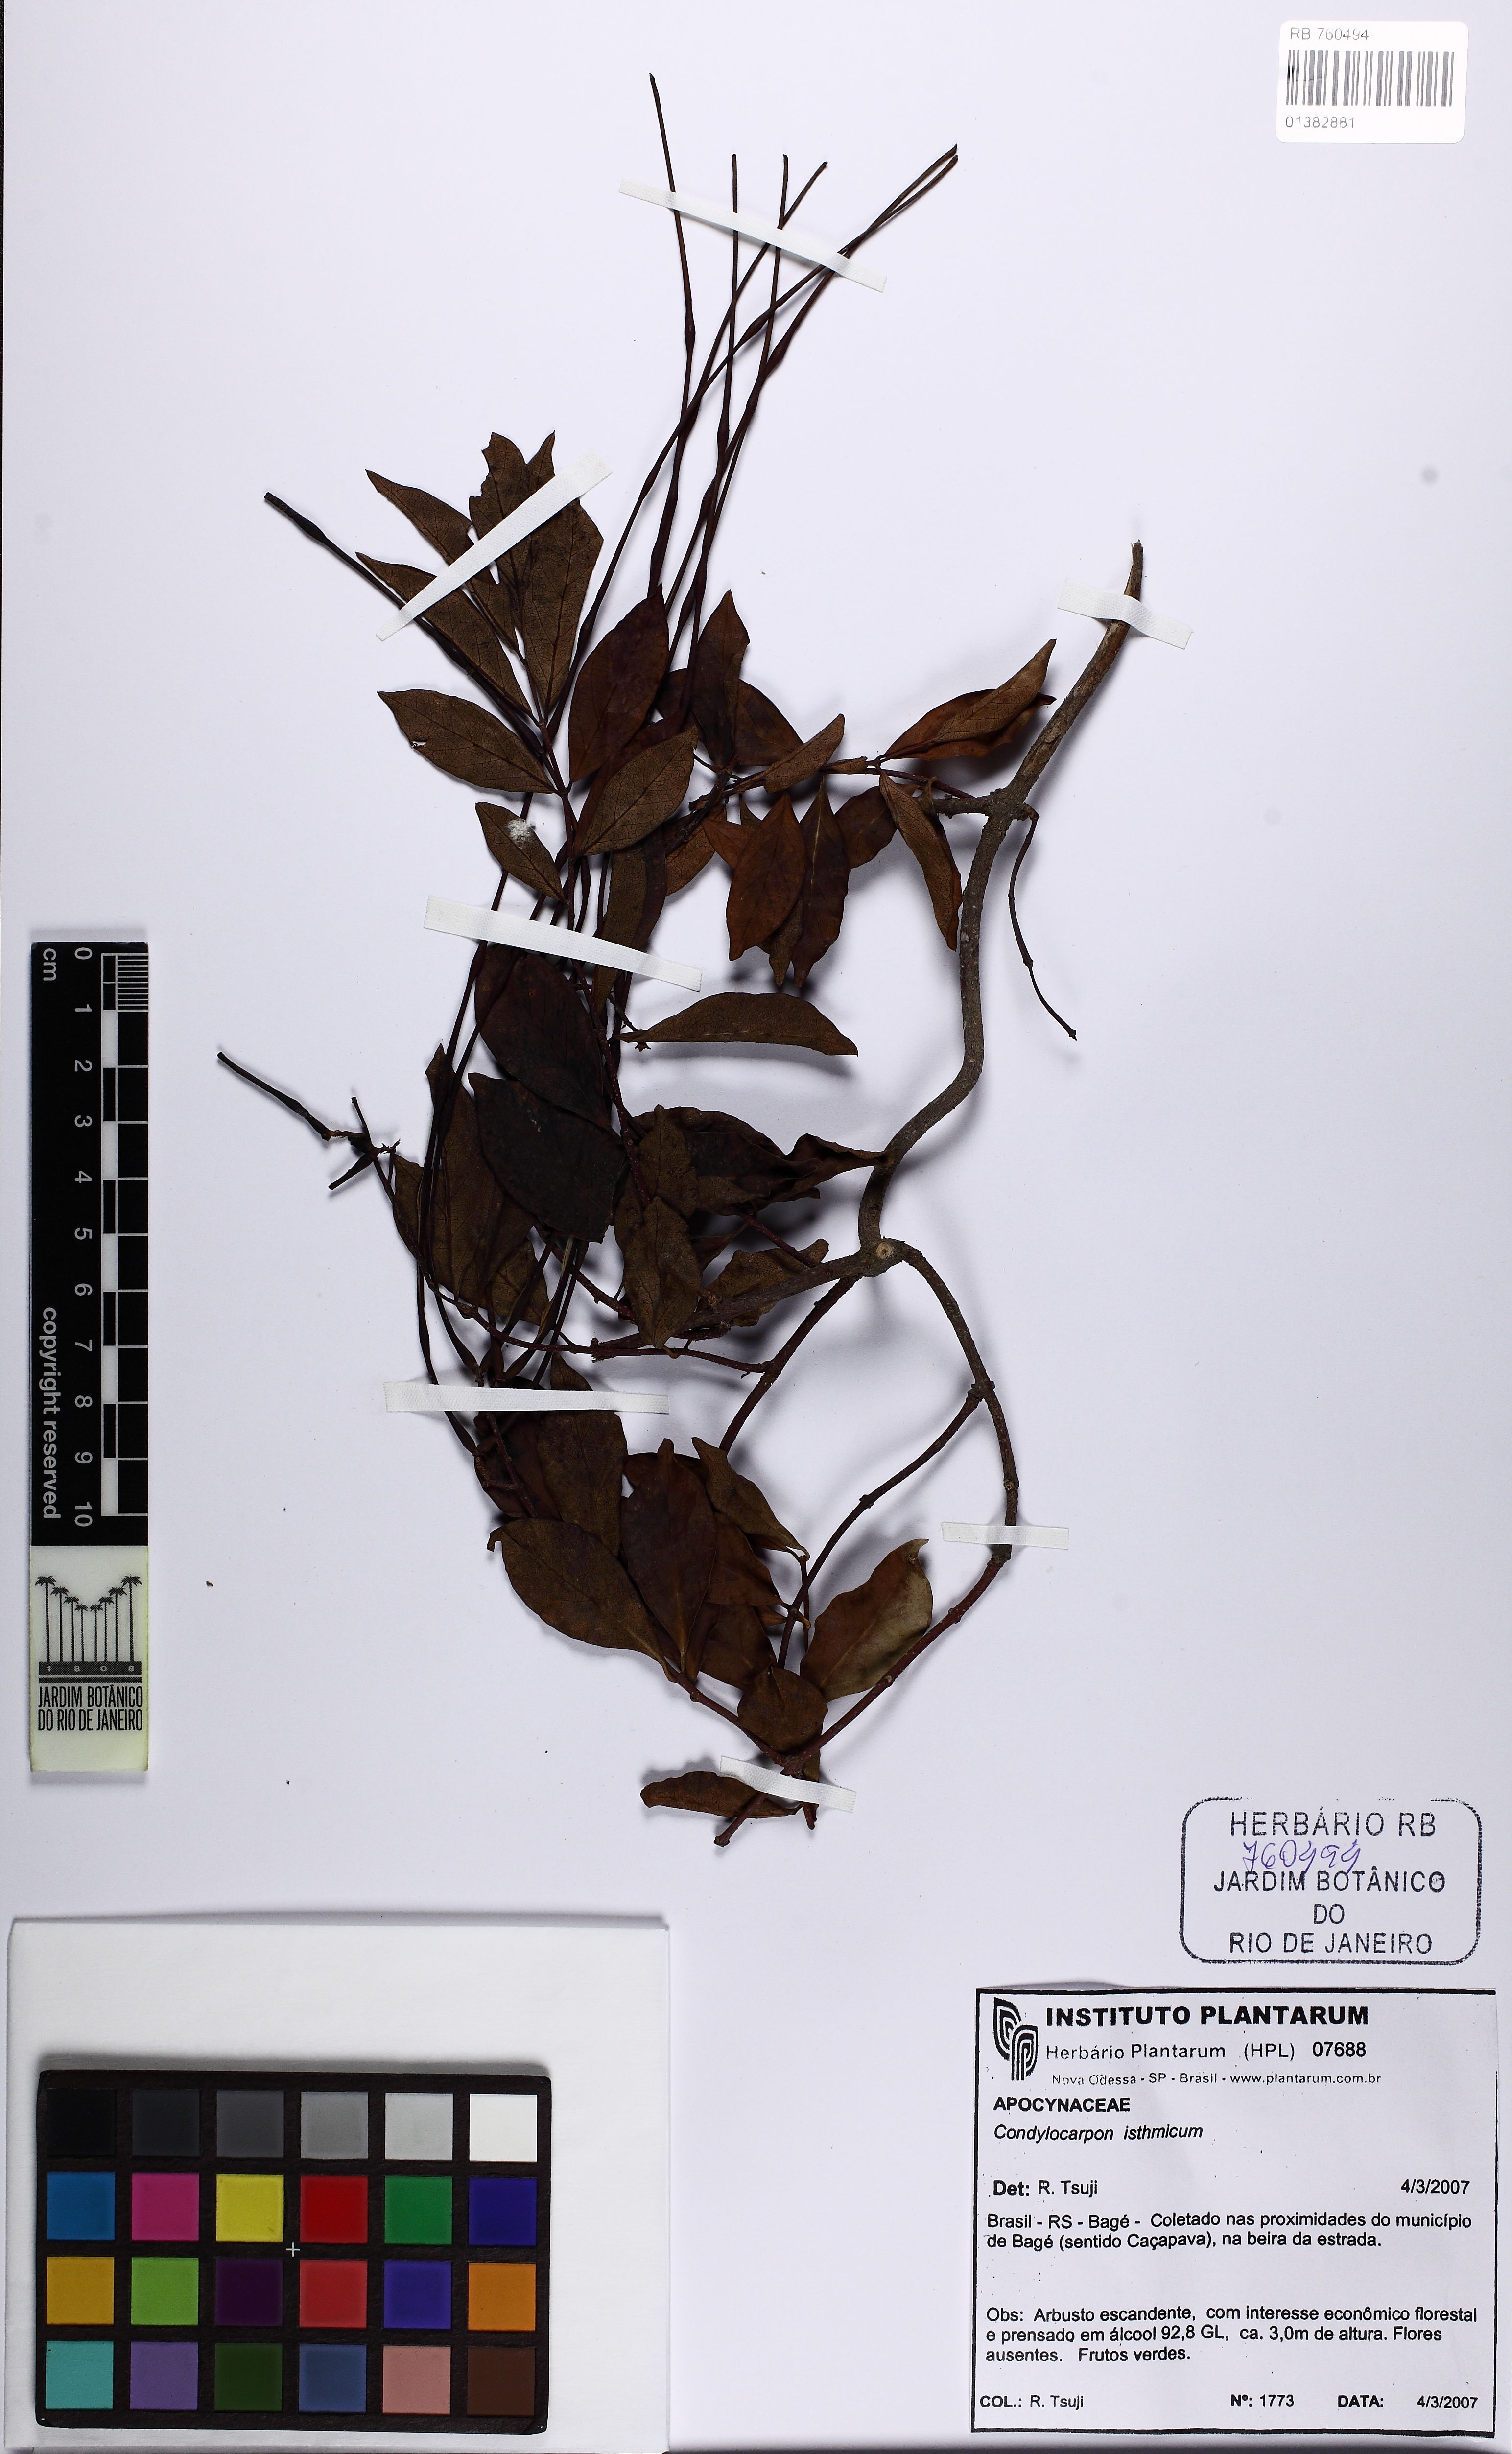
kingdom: Plantae
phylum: Tracheophyta
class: Magnoliopsida
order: Gentianales
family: Apocynaceae
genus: Condylocarpon
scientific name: Condylocarpon isthmicum
